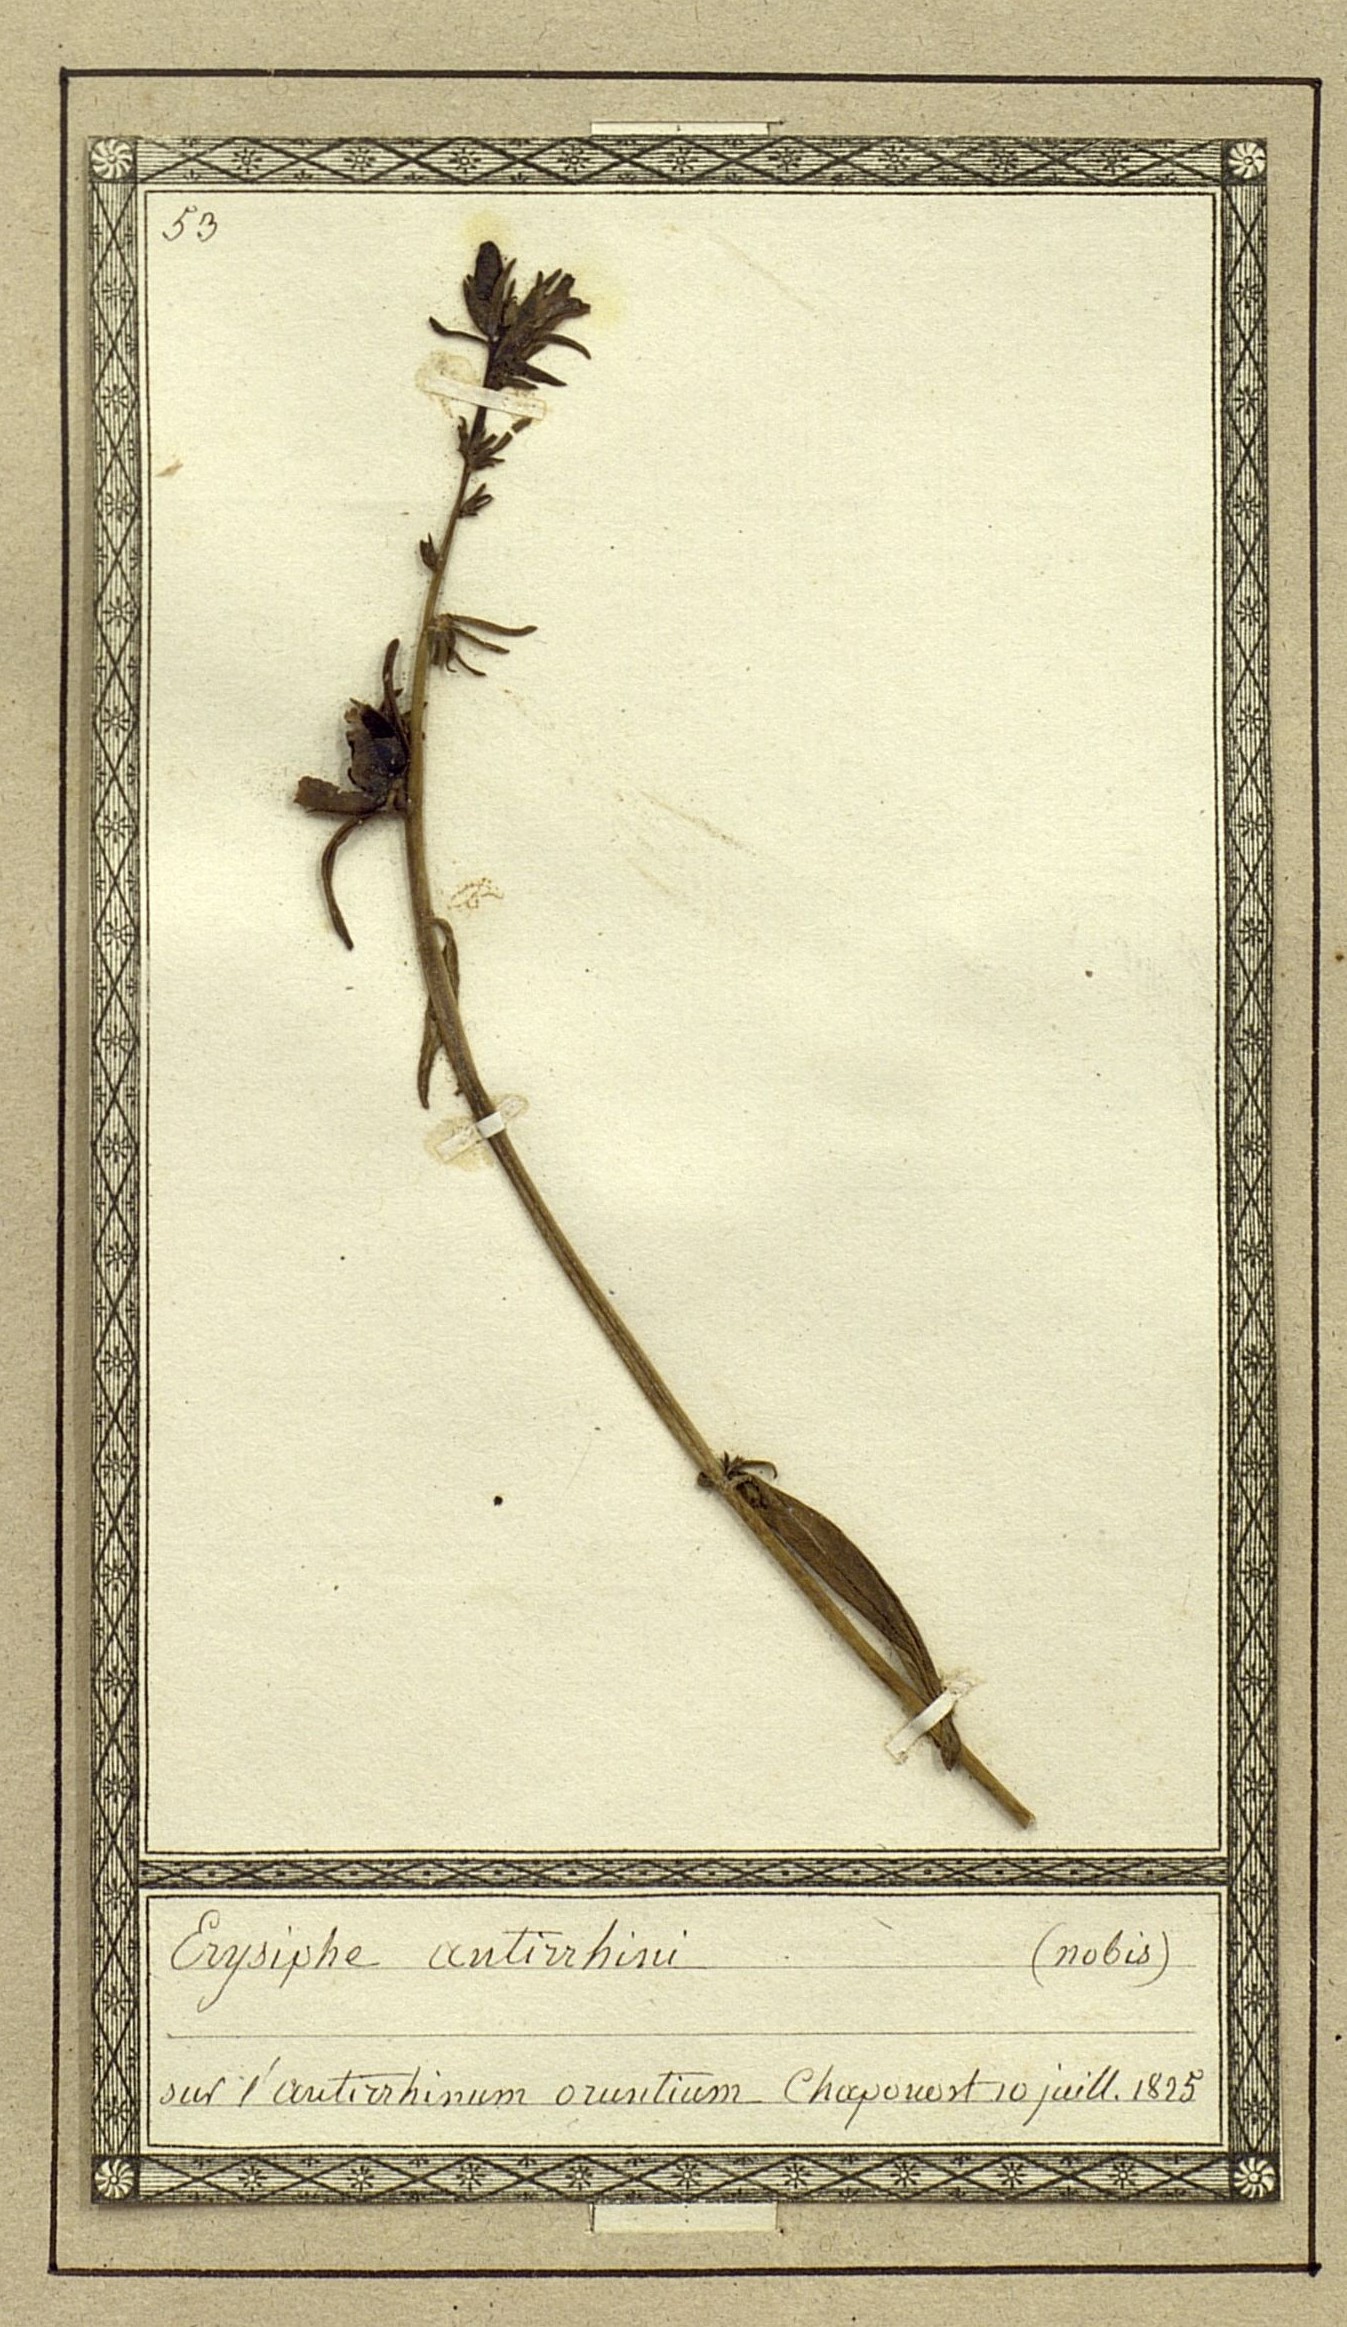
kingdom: Fungi
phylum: Ascomycota
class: Leotiomycetes
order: Helotiales
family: Erysiphaceae
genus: Erysiphe
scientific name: Erysiphe
